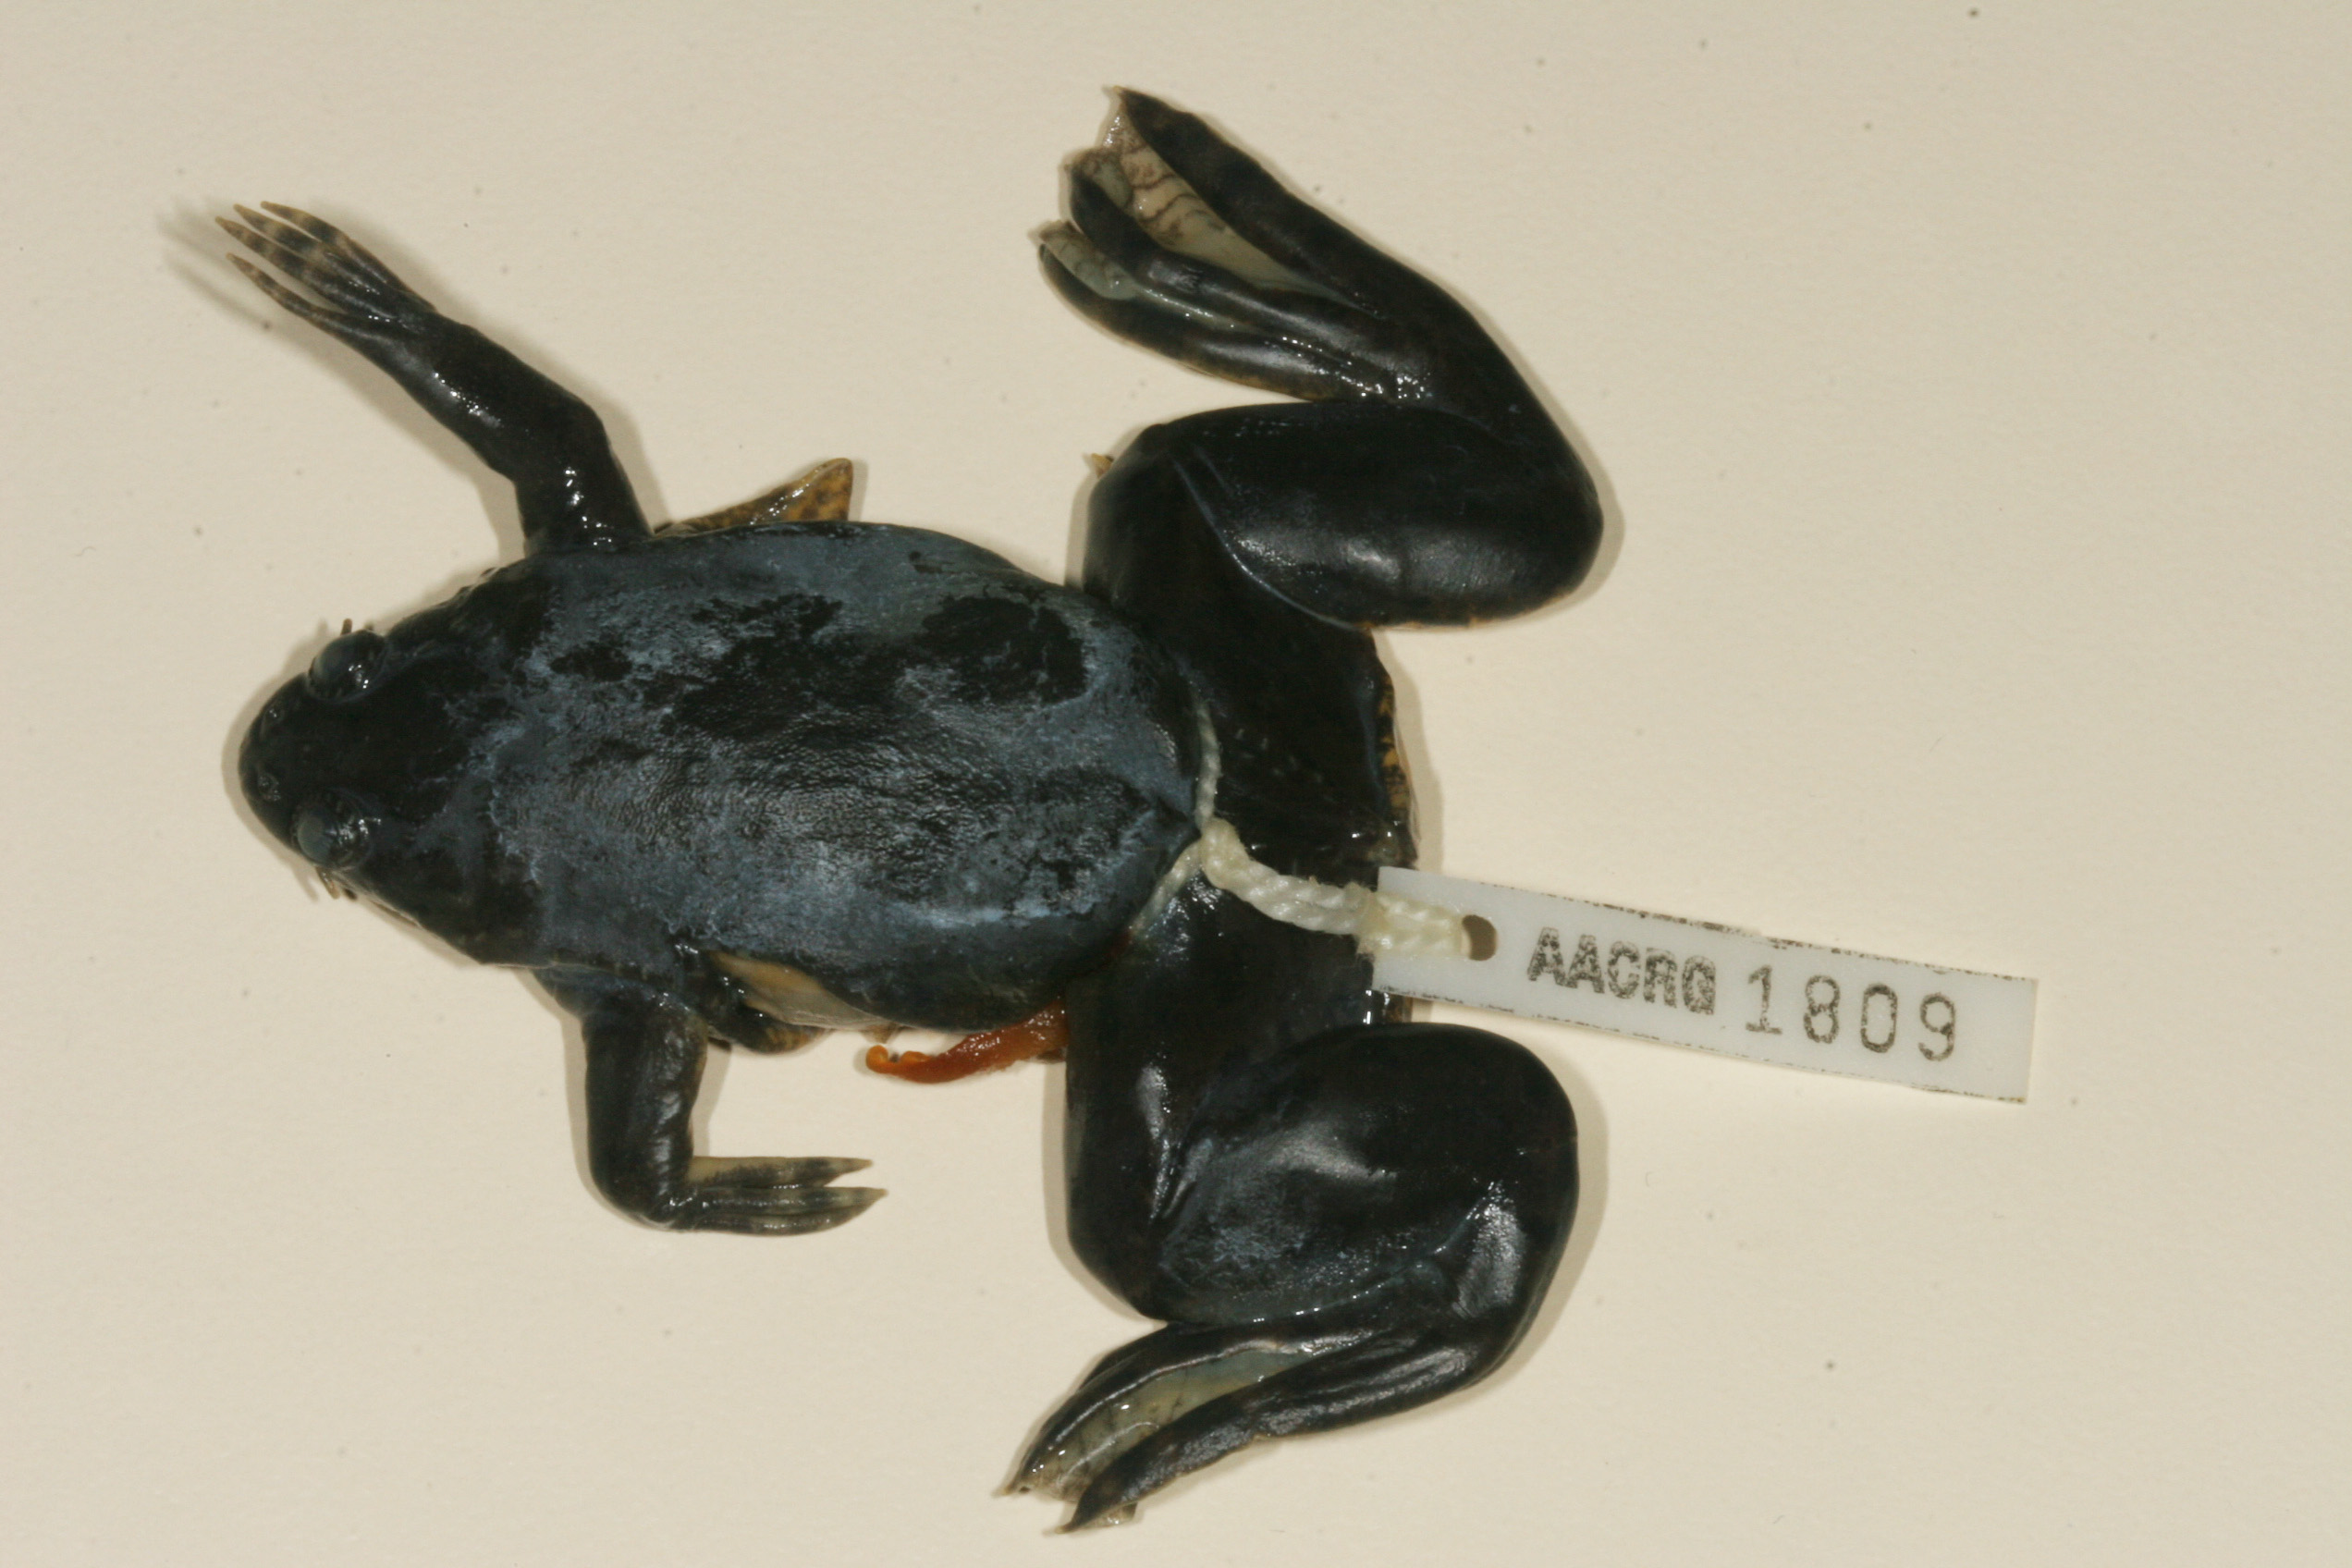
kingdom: Animalia
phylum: Chordata
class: Amphibia
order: Anura
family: Pipidae
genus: Xenopus
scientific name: Xenopus muelleri
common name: Muller's clawed frog
